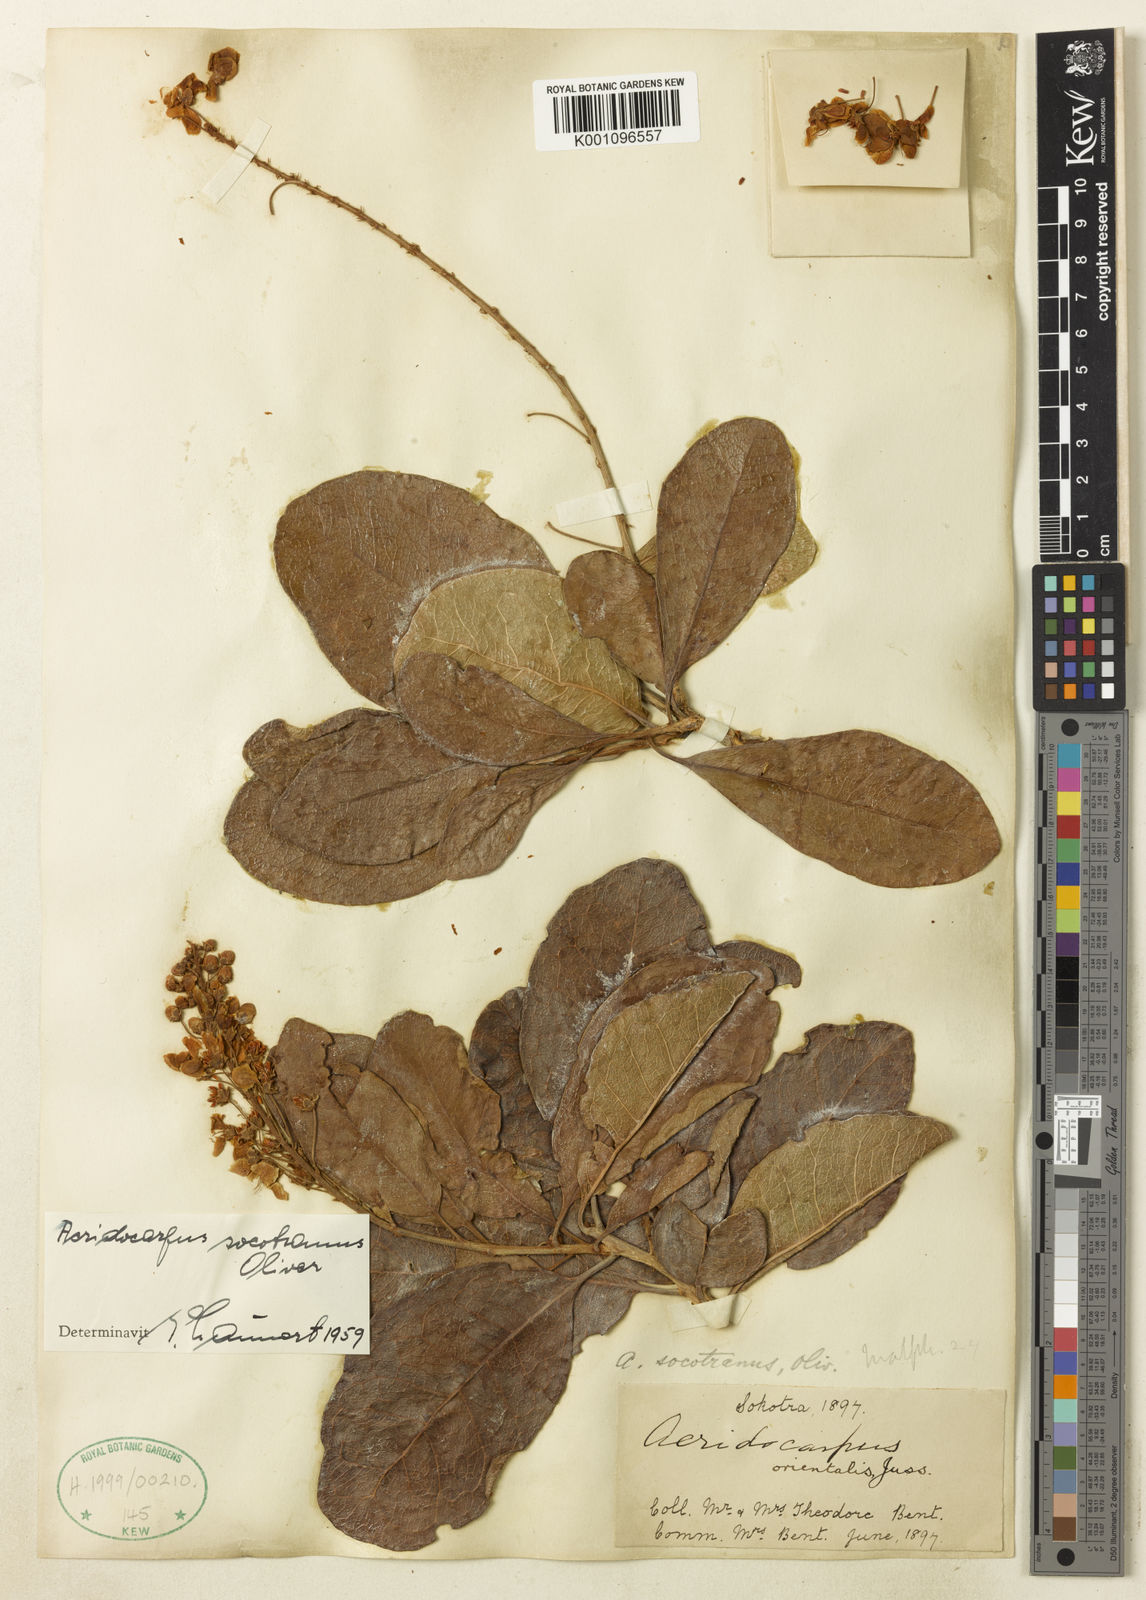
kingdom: Plantae
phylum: Tracheophyta
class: Magnoliopsida
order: Malpighiales
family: Malpighiaceae
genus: Acridocarpus
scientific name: Acridocarpus socotranus
